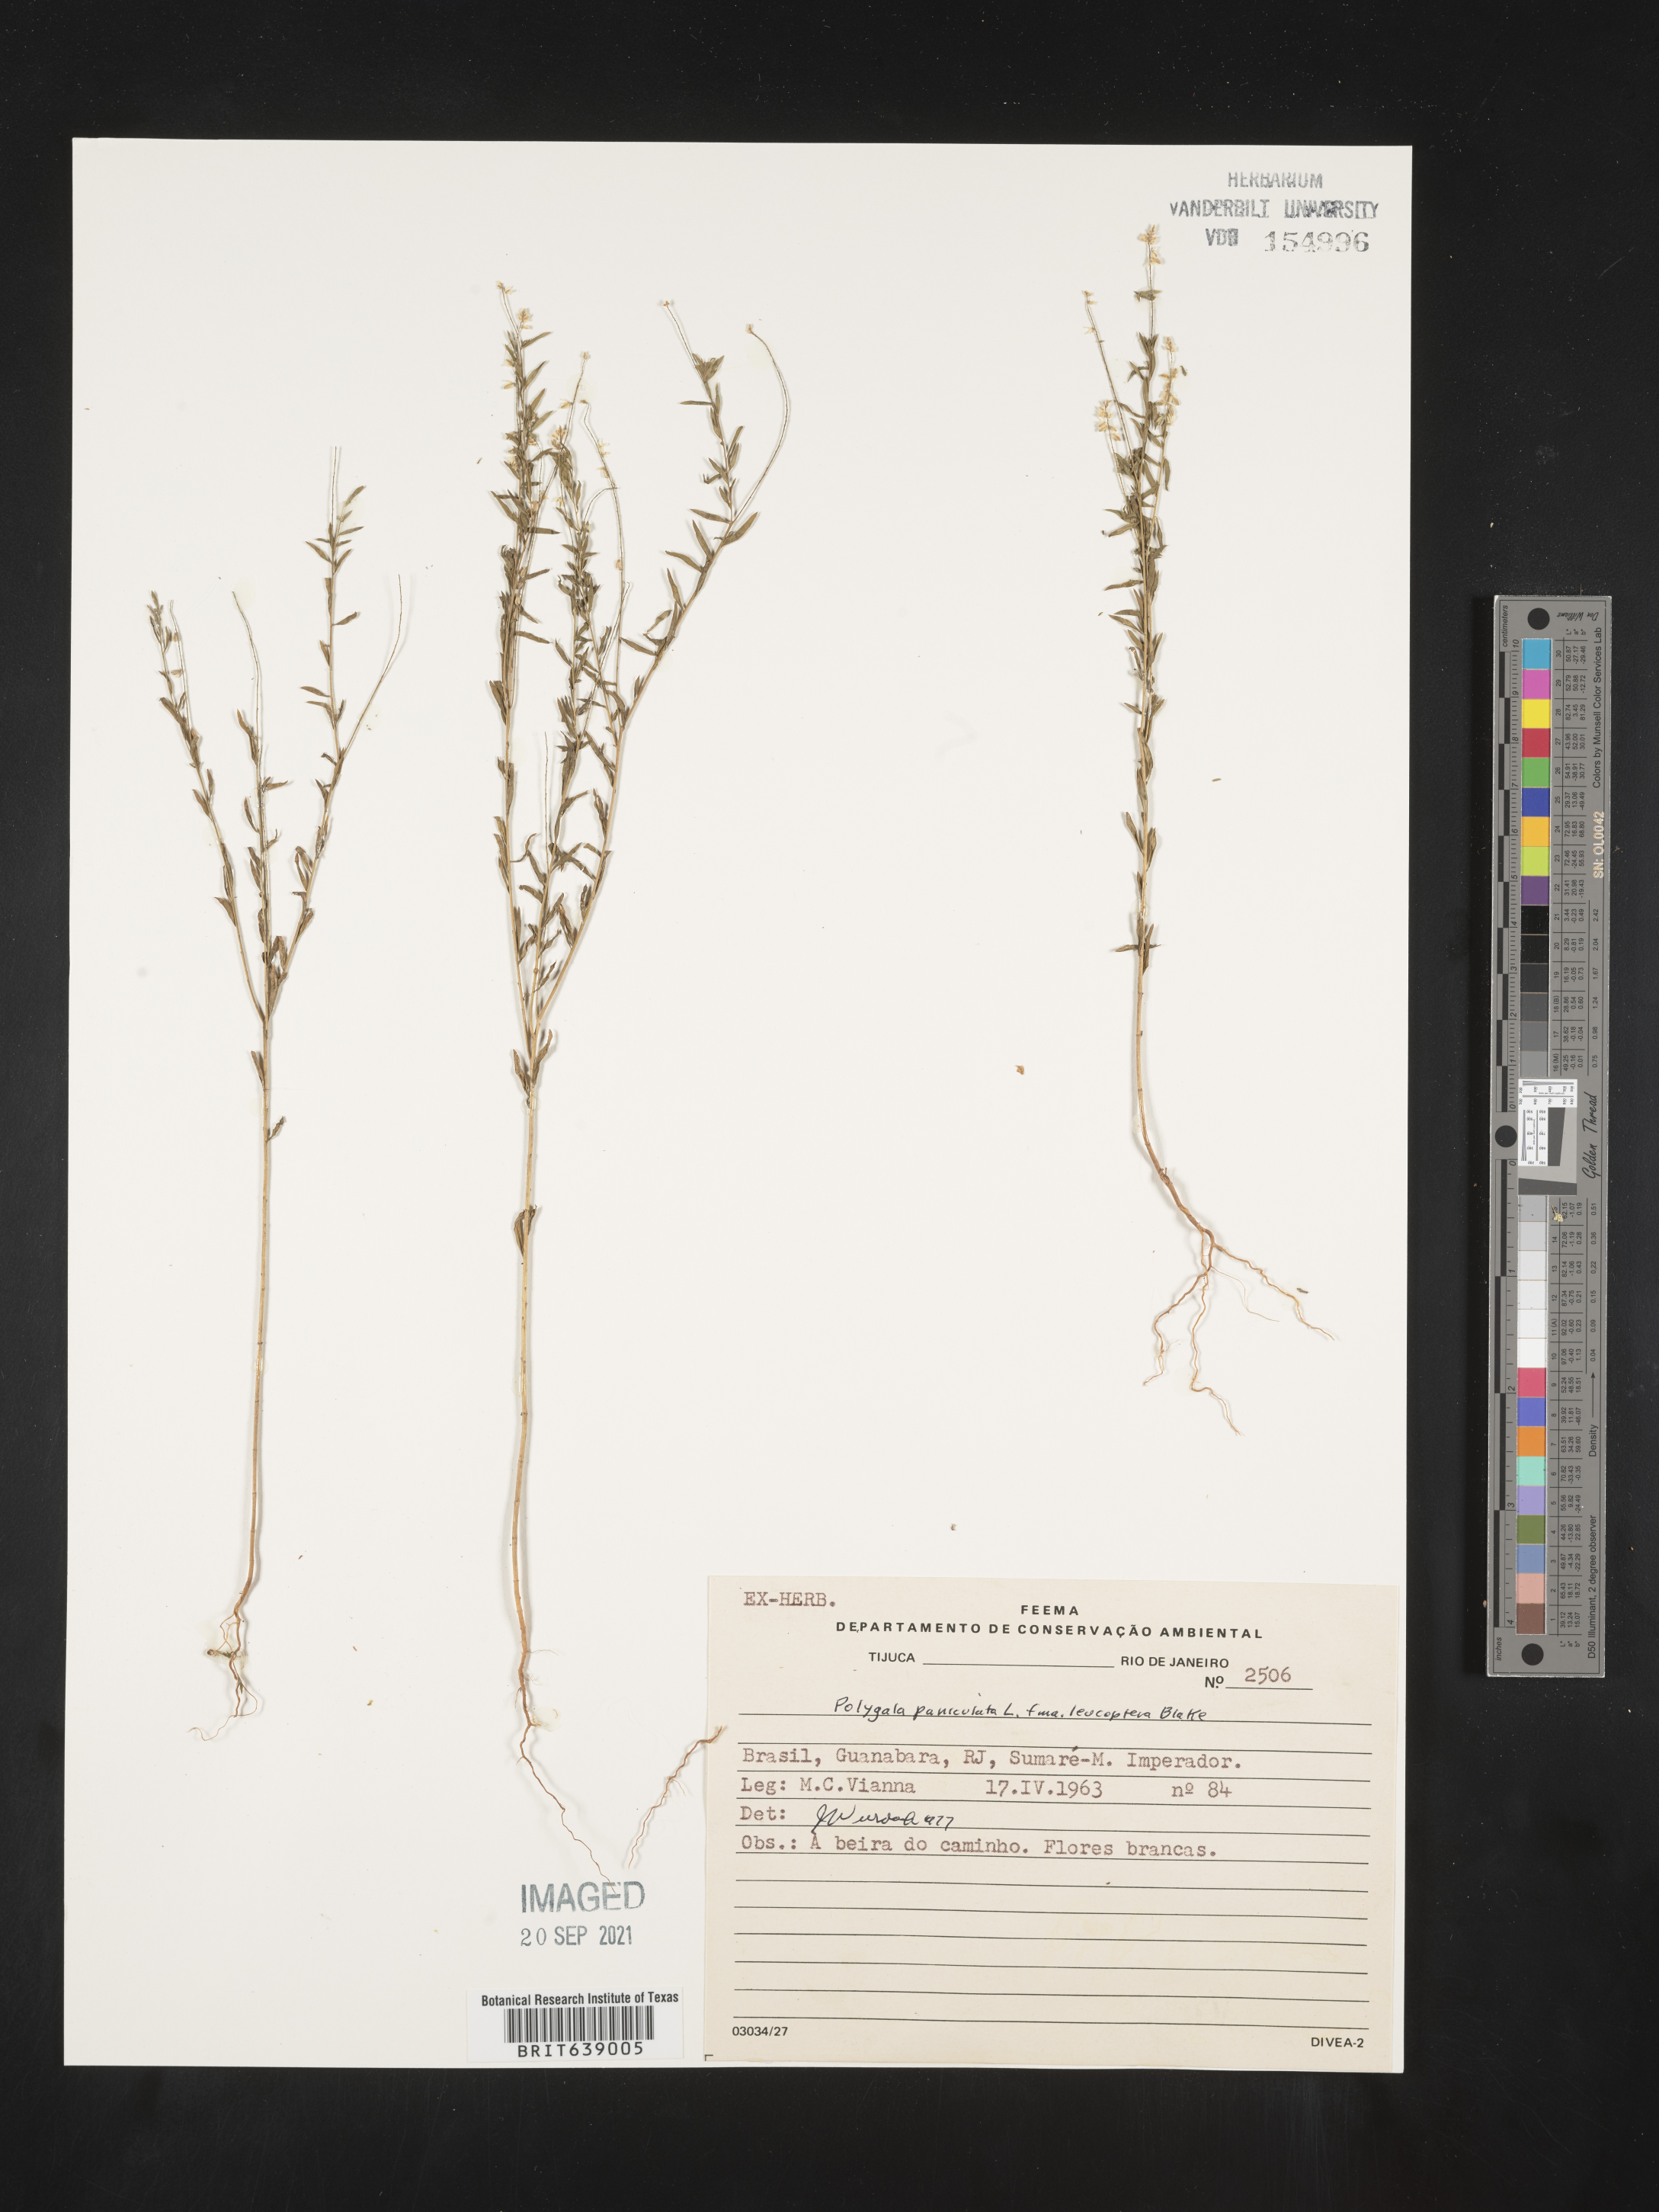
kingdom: Plantae
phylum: Tracheophyta
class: Magnoliopsida
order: Fabales
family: Polygalaceae
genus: Polygala
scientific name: Polygala
